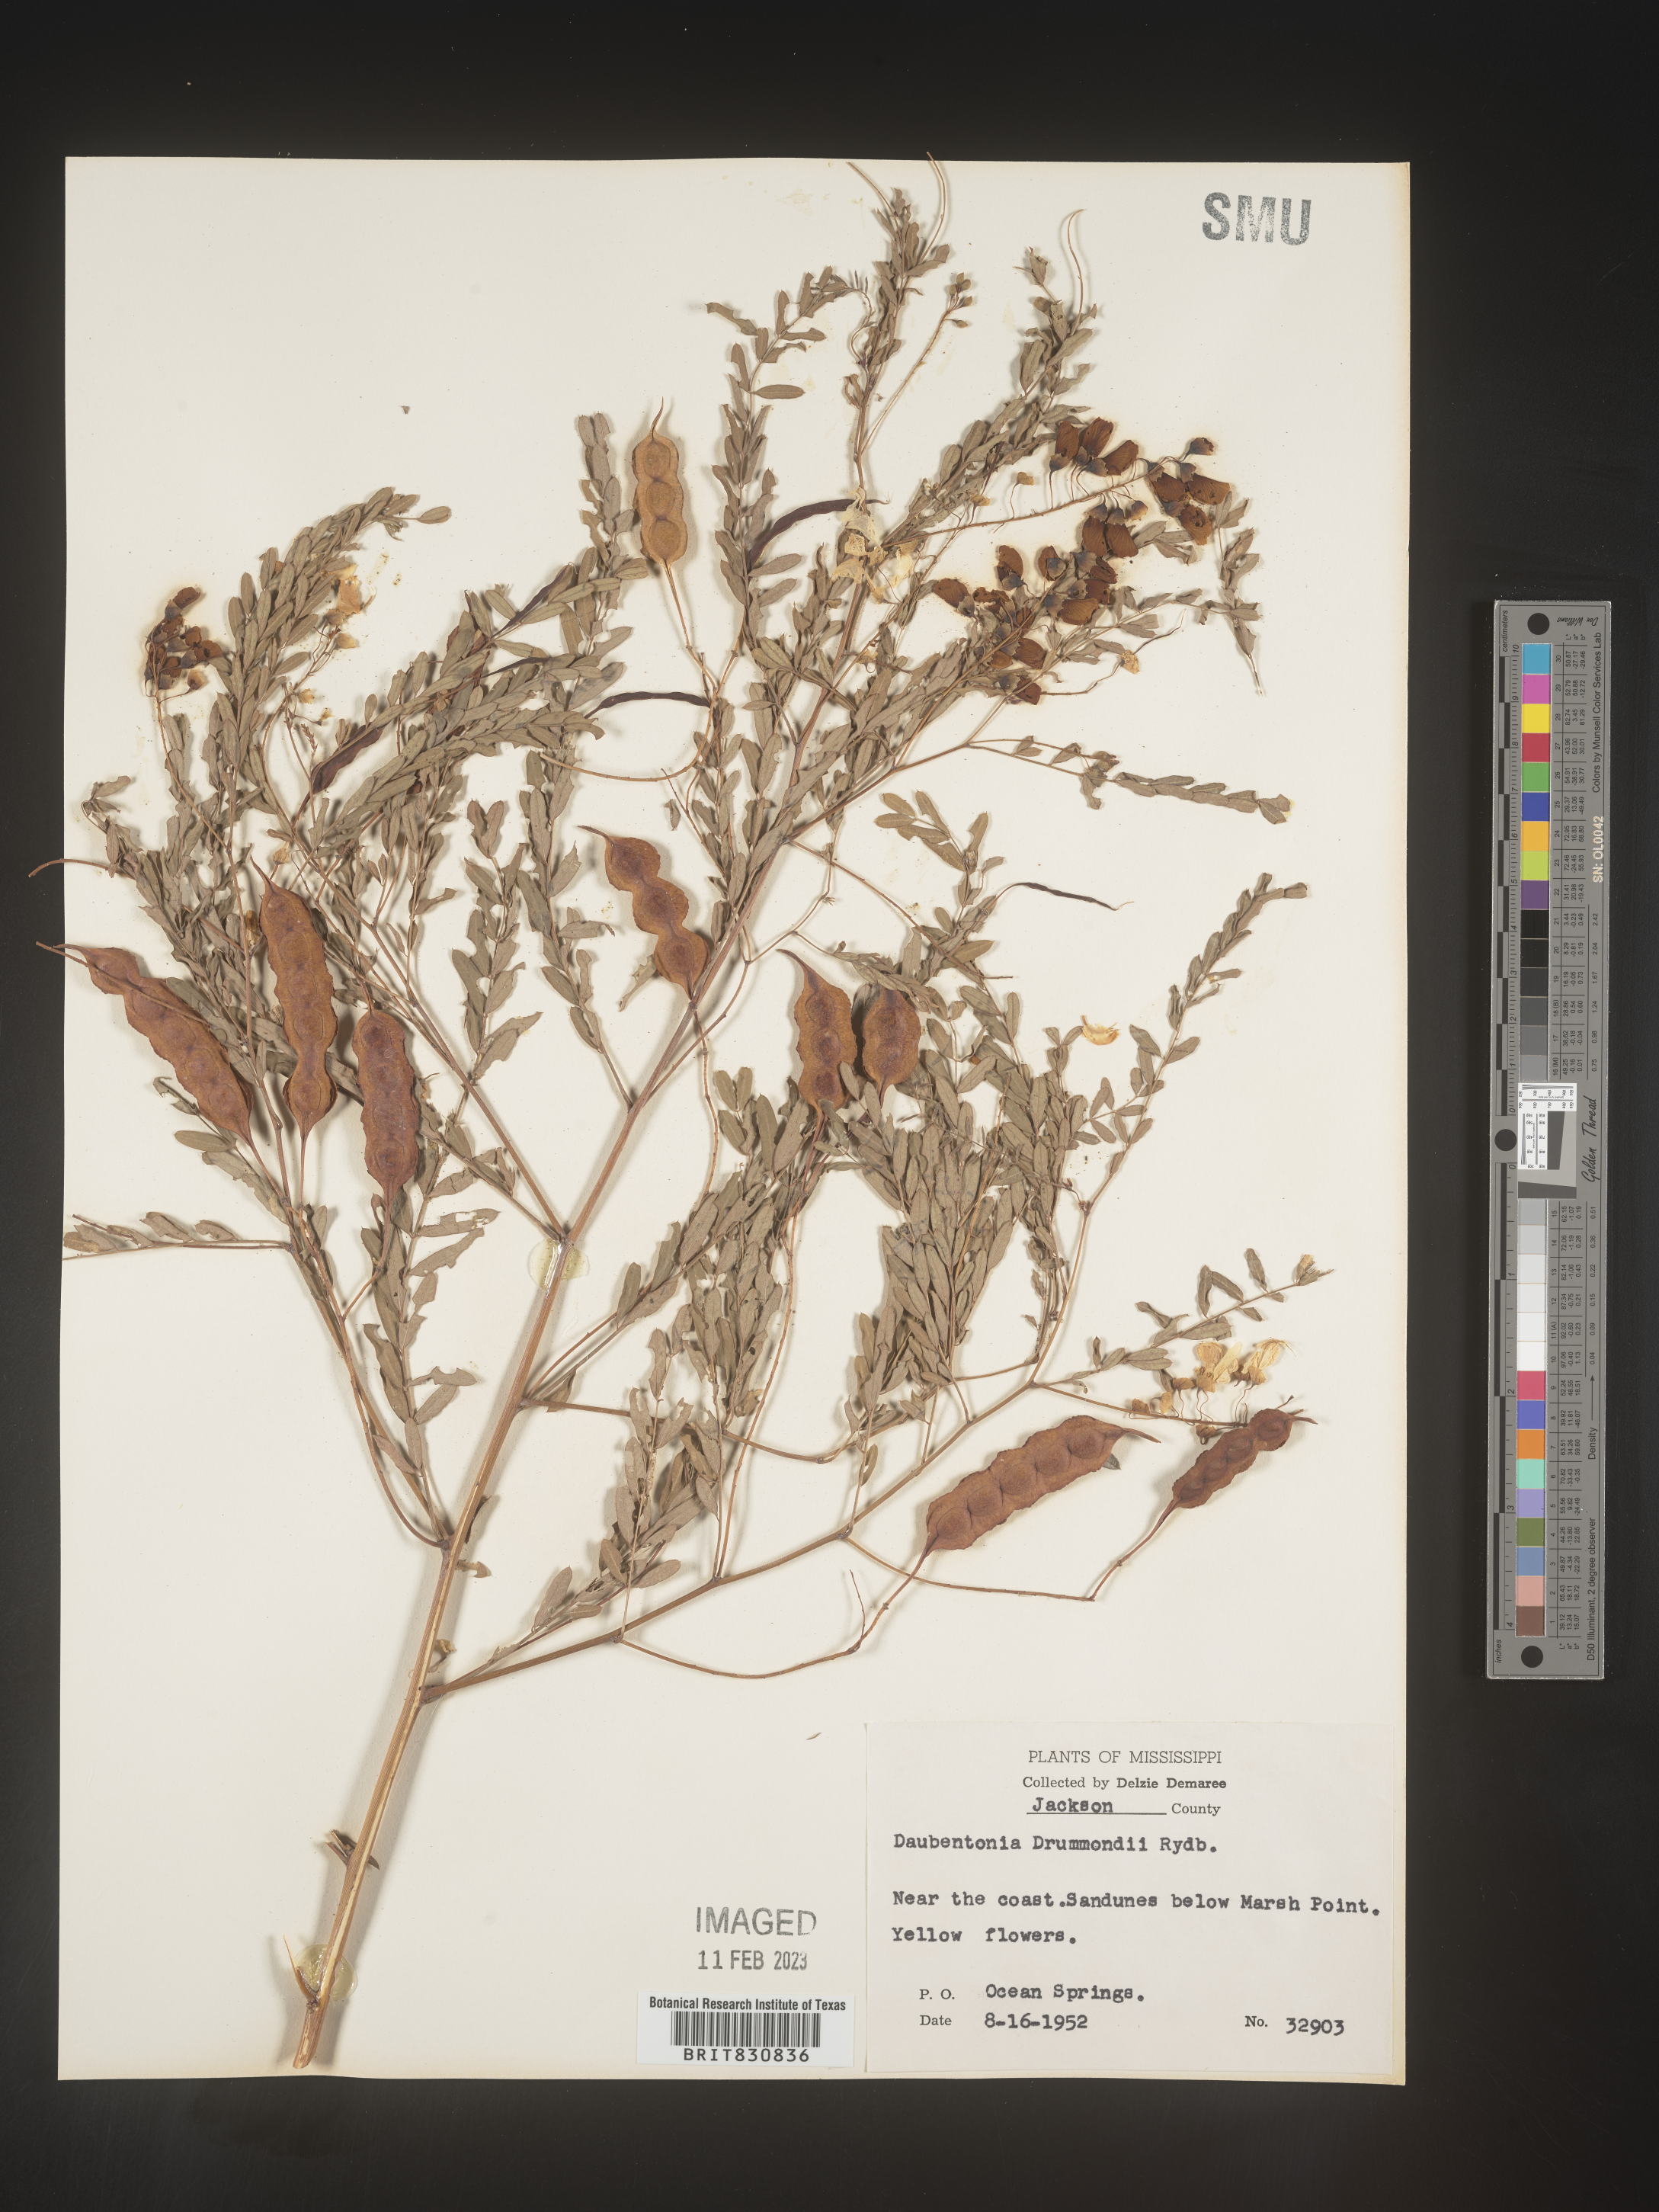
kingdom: Plantae
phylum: Tracheophyta
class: Magnoliopsida
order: Fabales
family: Fabaceae
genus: Sesbania
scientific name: Sesbania drummondii
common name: Poison-bean
